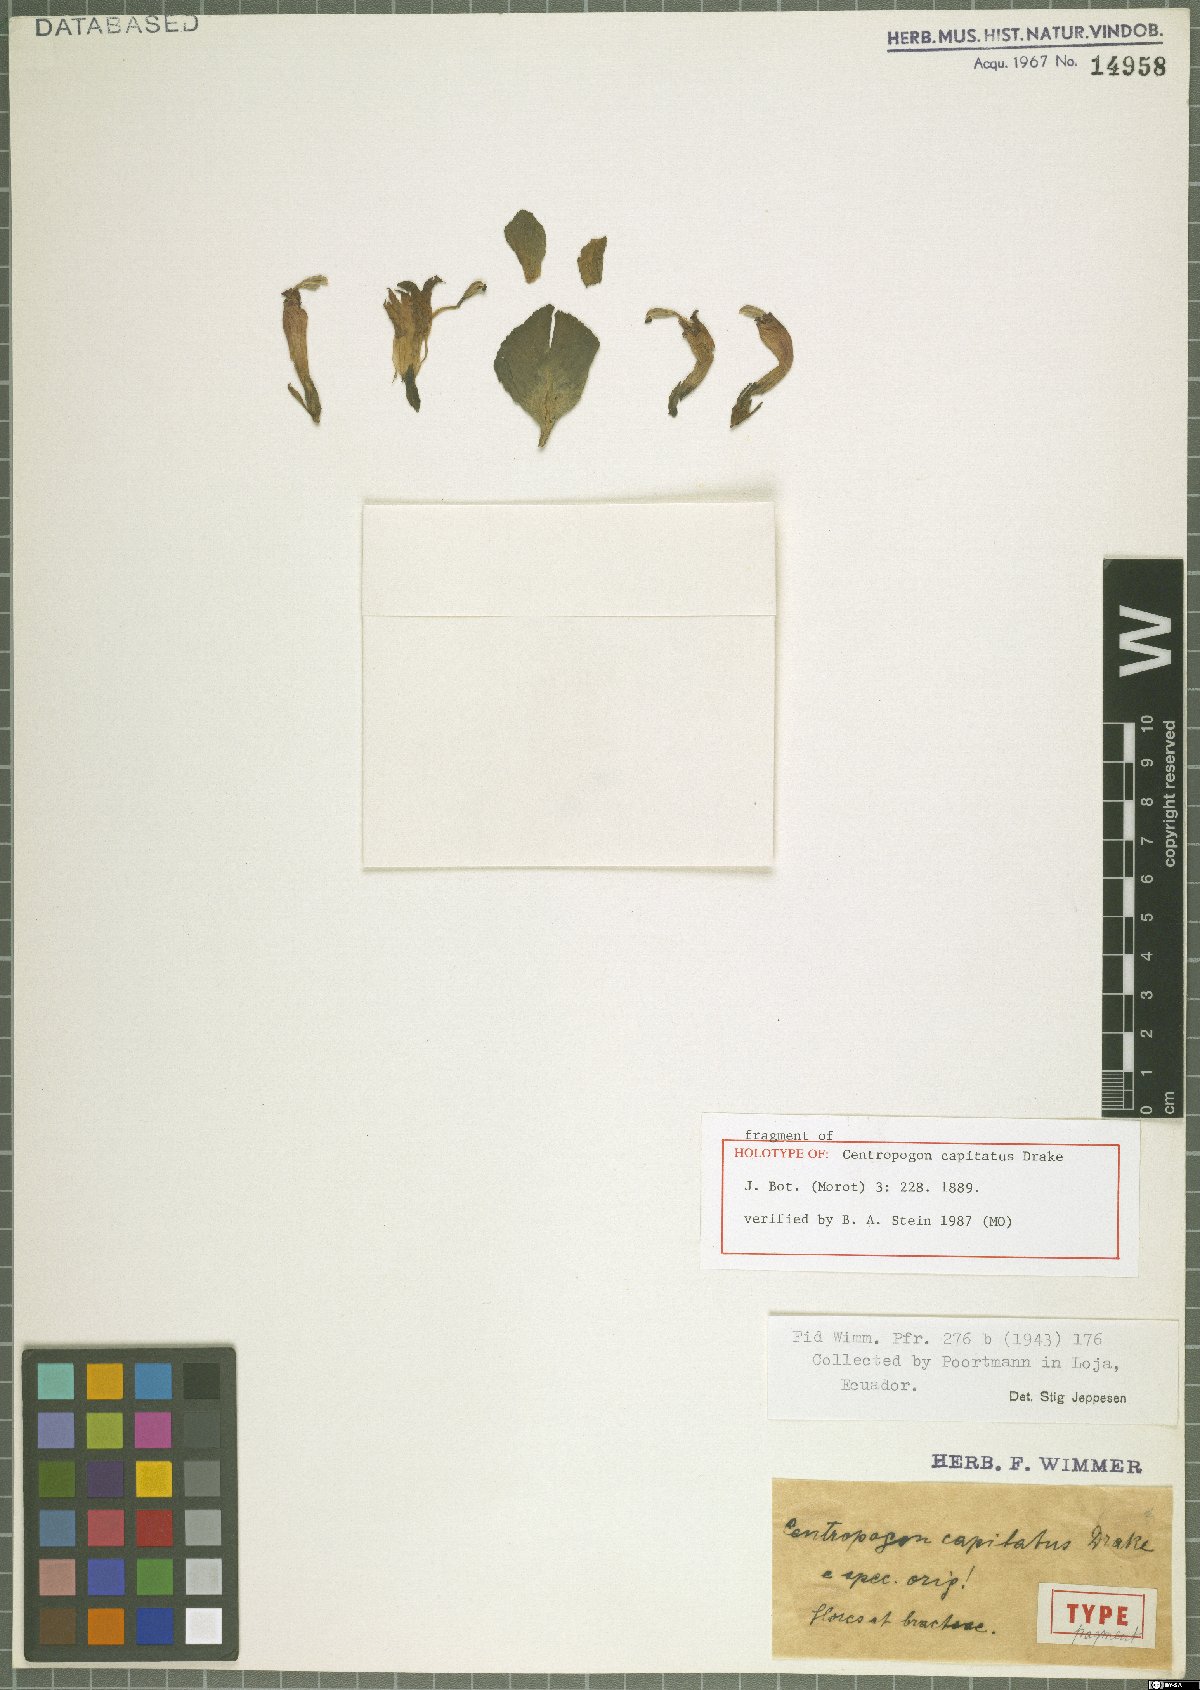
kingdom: Plantae
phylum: Tracheophyta
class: Magnoliopsida
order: Asterales
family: Campanulaceae
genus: Centropogon
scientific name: Centropogon capitatus
